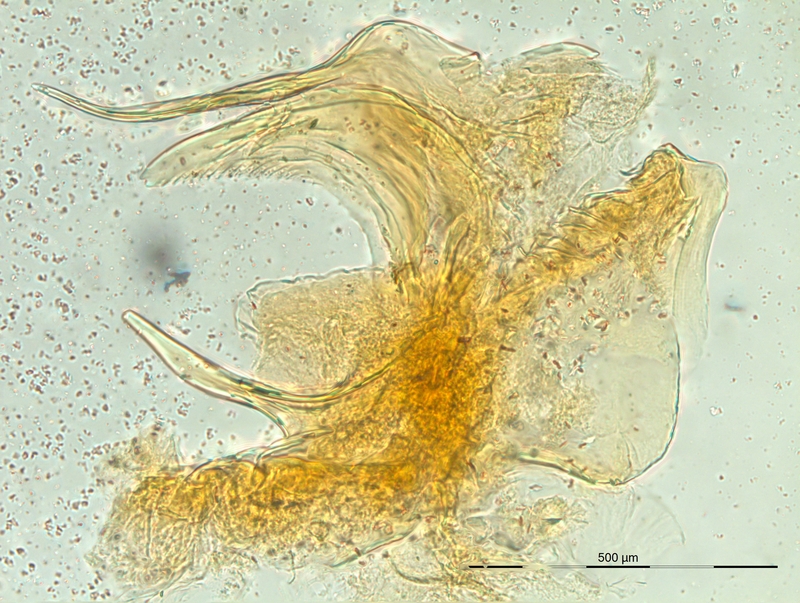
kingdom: Animalia
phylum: Arthropoda
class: Diplopoda
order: Chordeumatida
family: Craspedosomatidae
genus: Rhymogona
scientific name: Rhymogona wehrana
